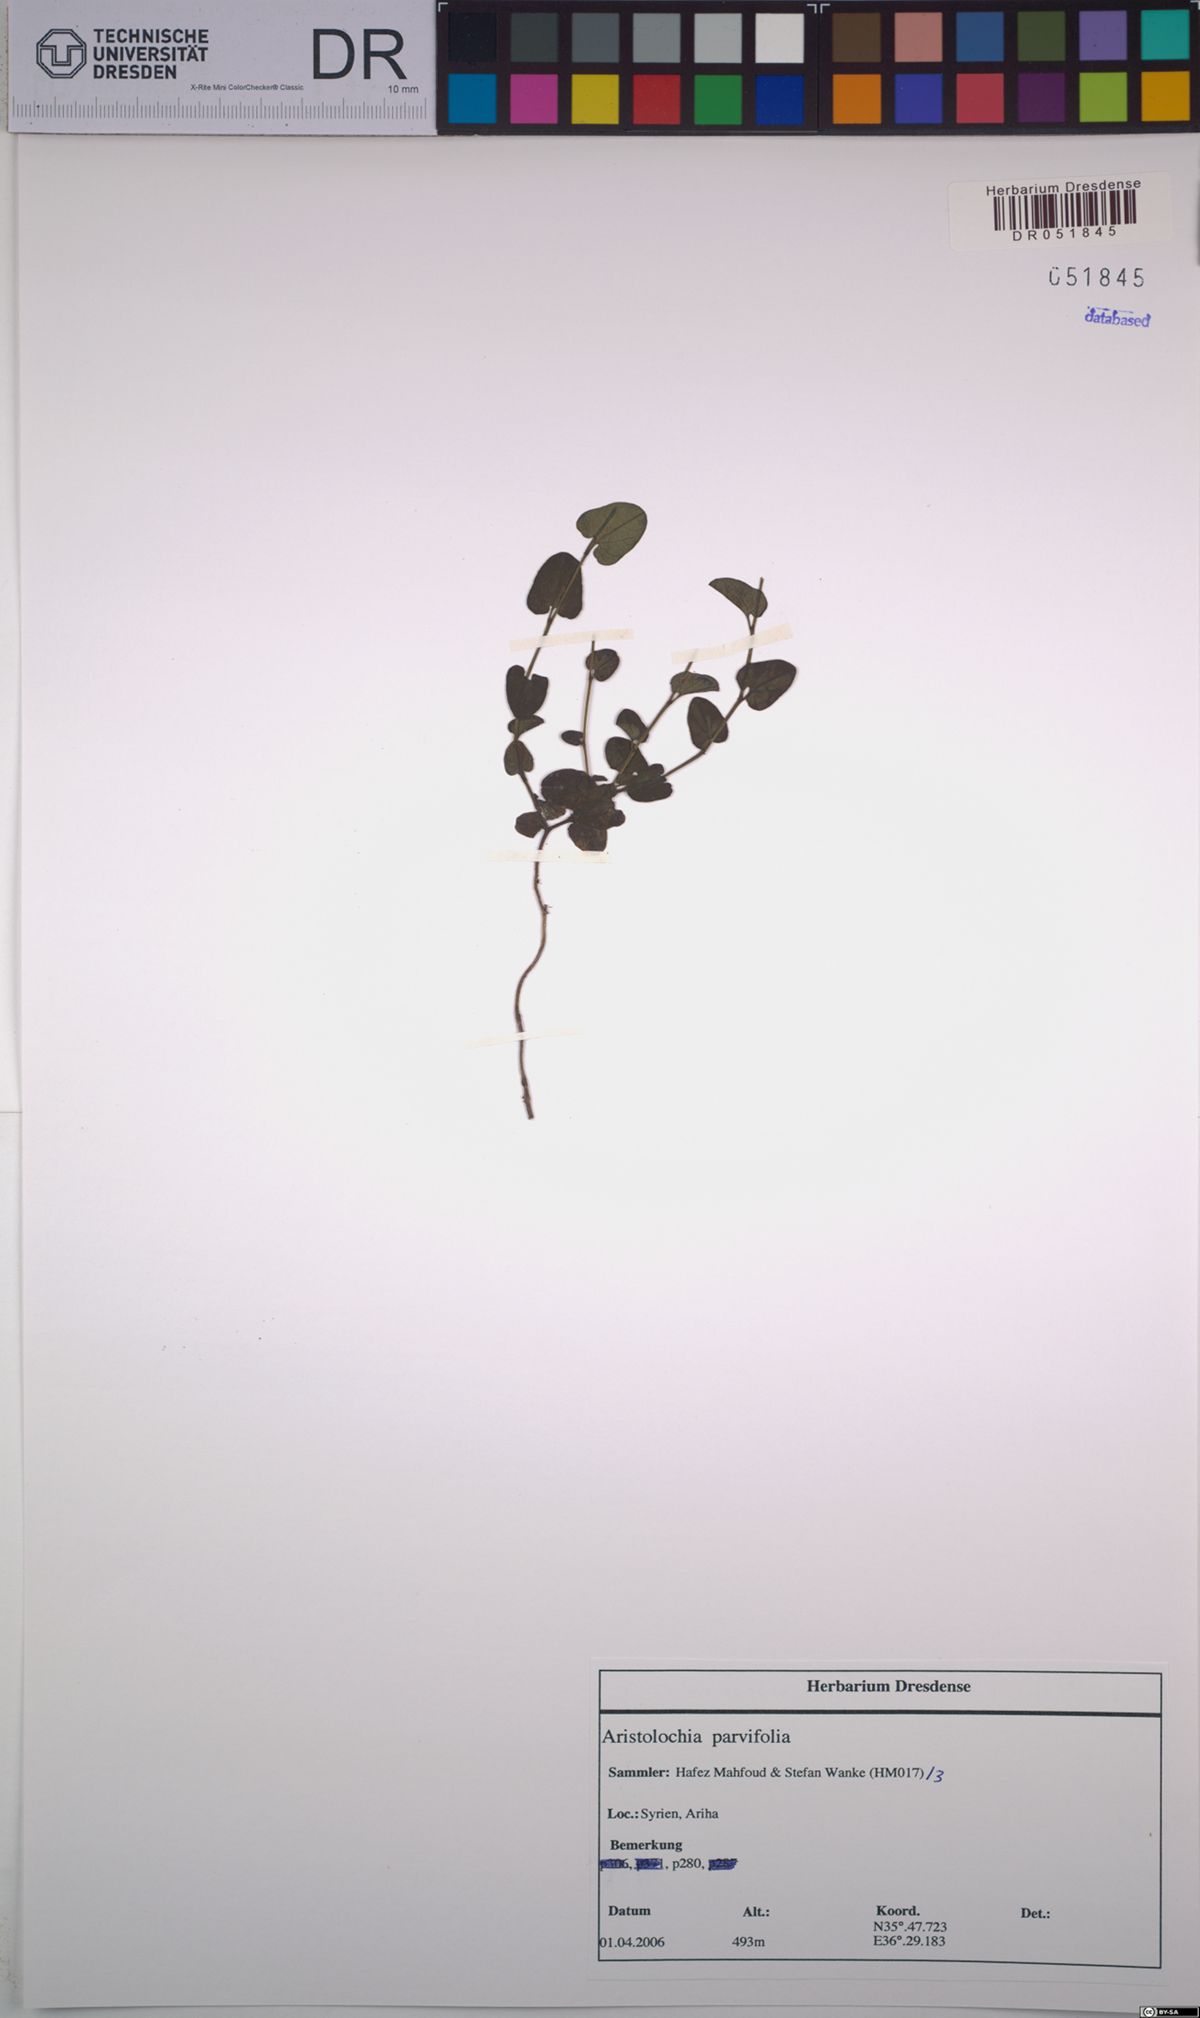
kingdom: Plantae
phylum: Tracheophyta
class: Magnoliopsida
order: Piperales
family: Aristolochiaceae
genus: Aristolochia
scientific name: Aristolochia parvifolia
